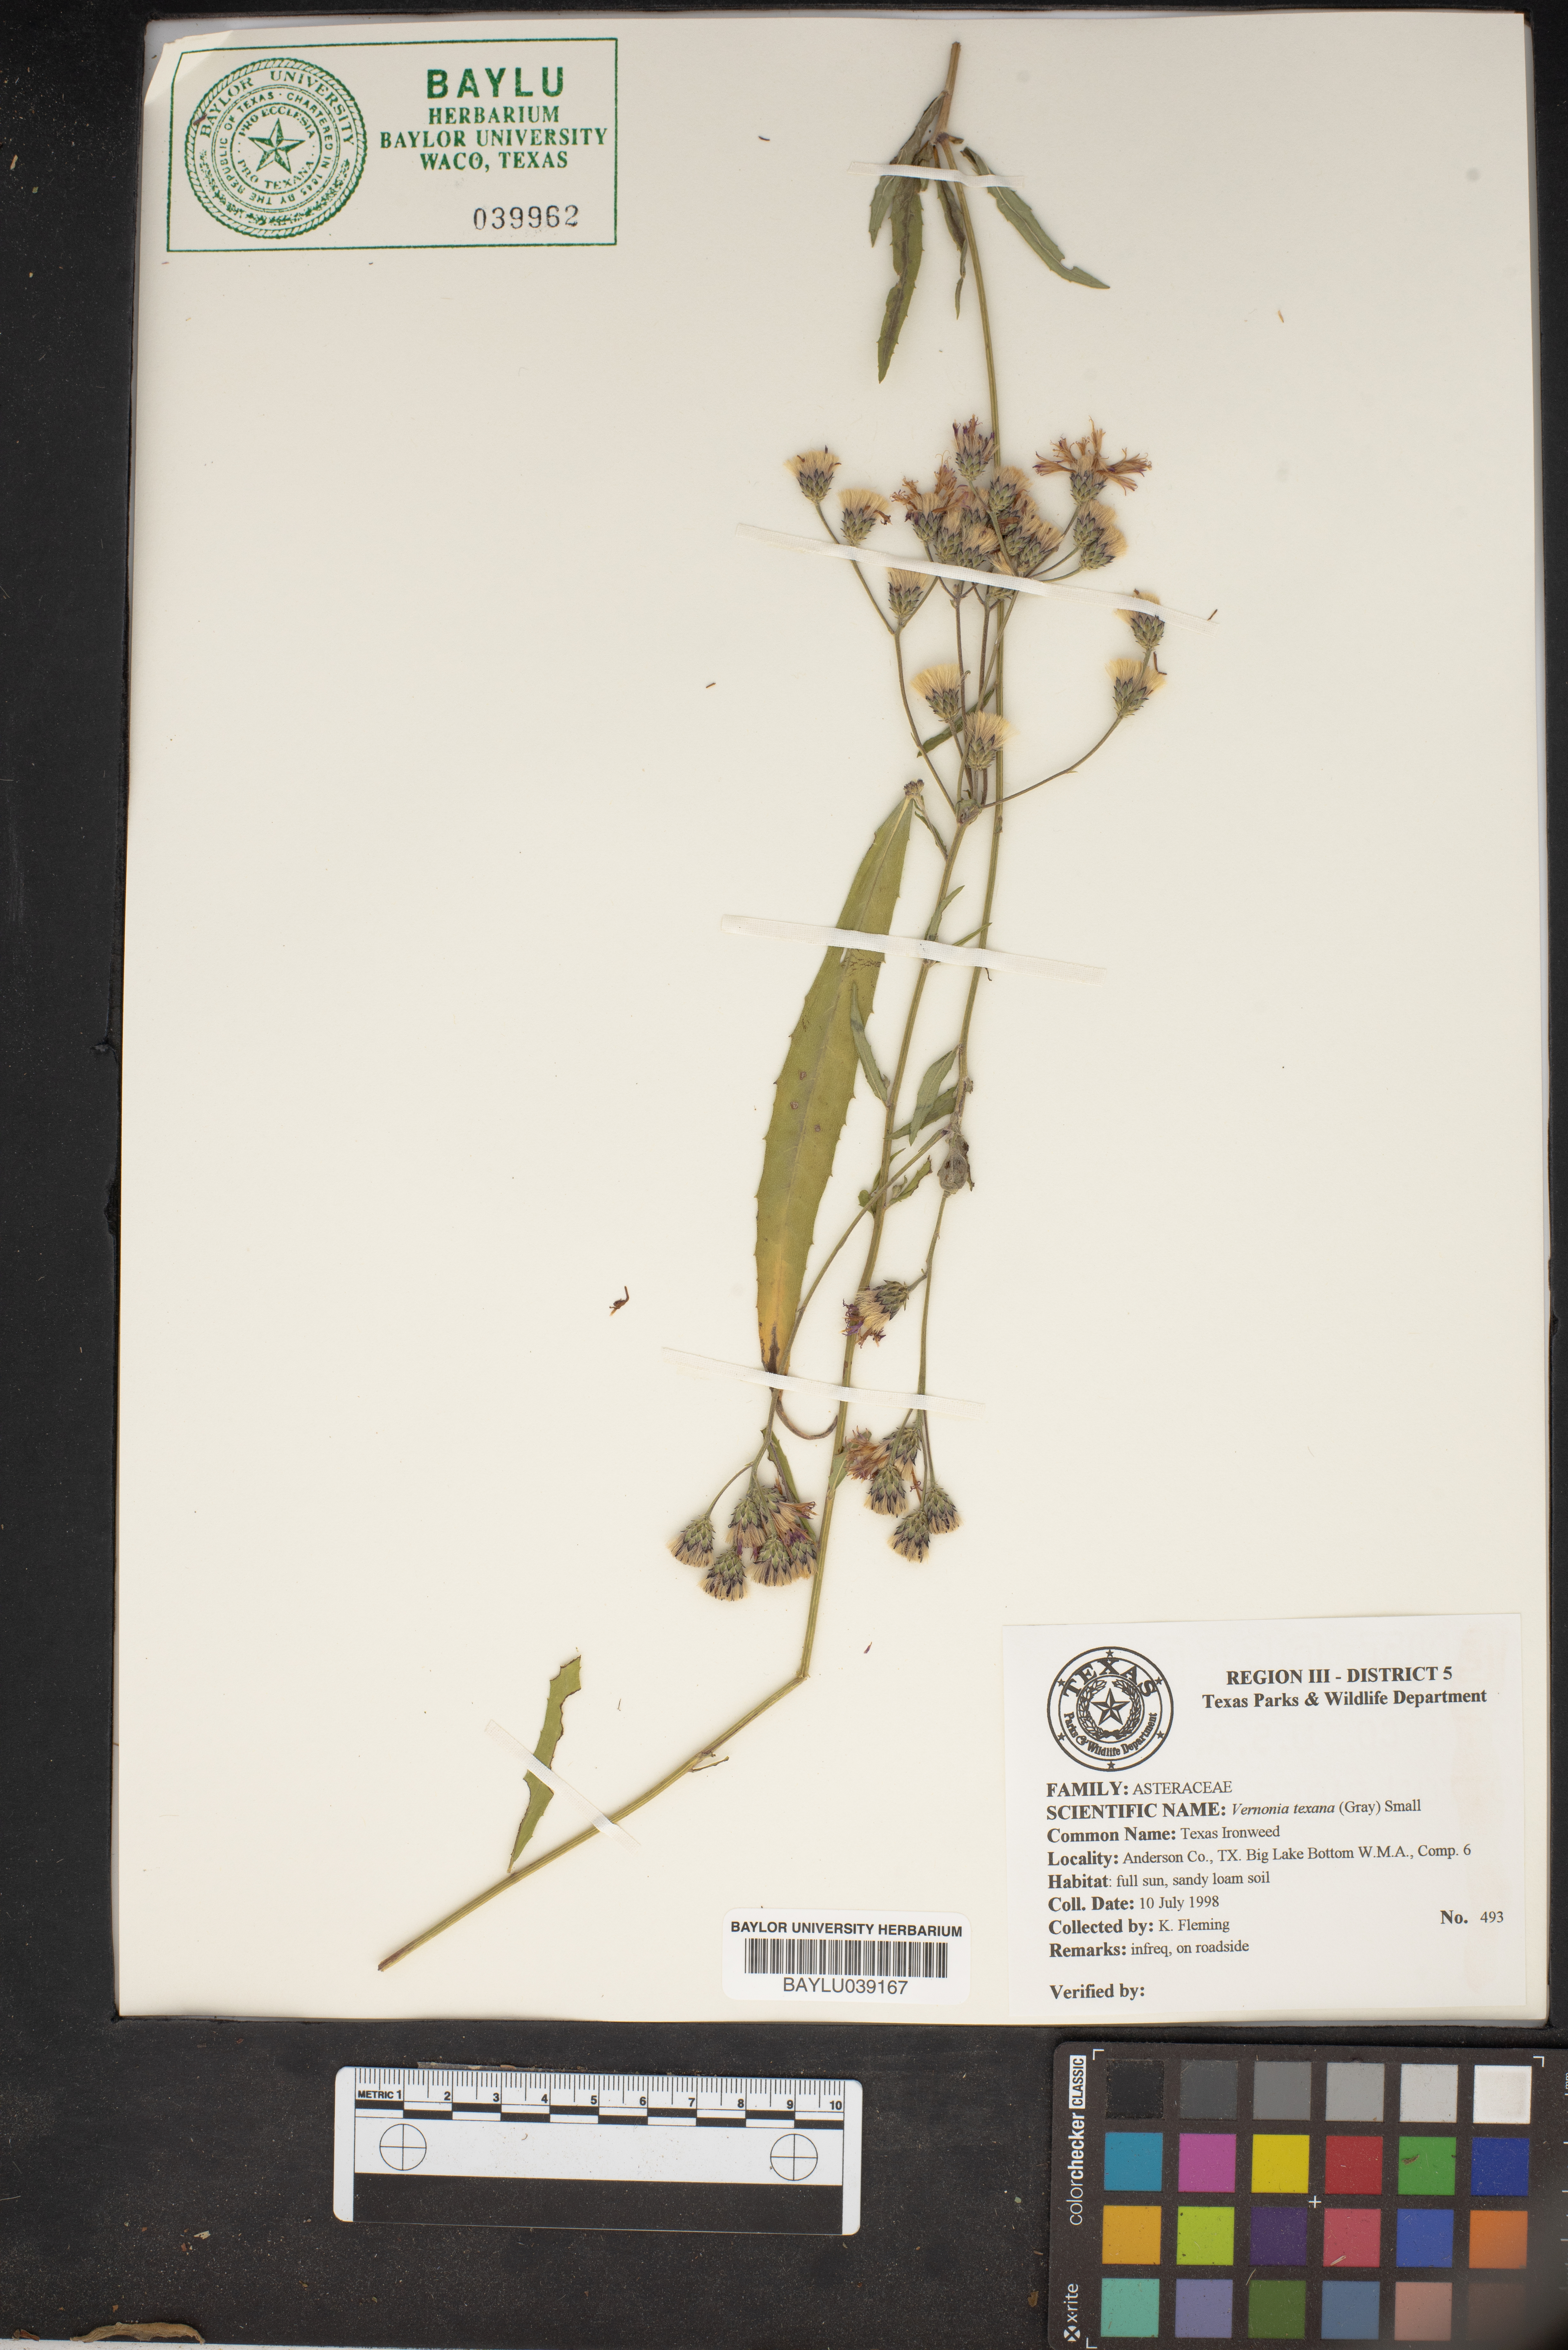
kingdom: Plantae
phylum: Tracheophyta
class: Magnoliopsida
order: Asterales
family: Asteraceae
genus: Vernonia
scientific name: Vernonia texana
